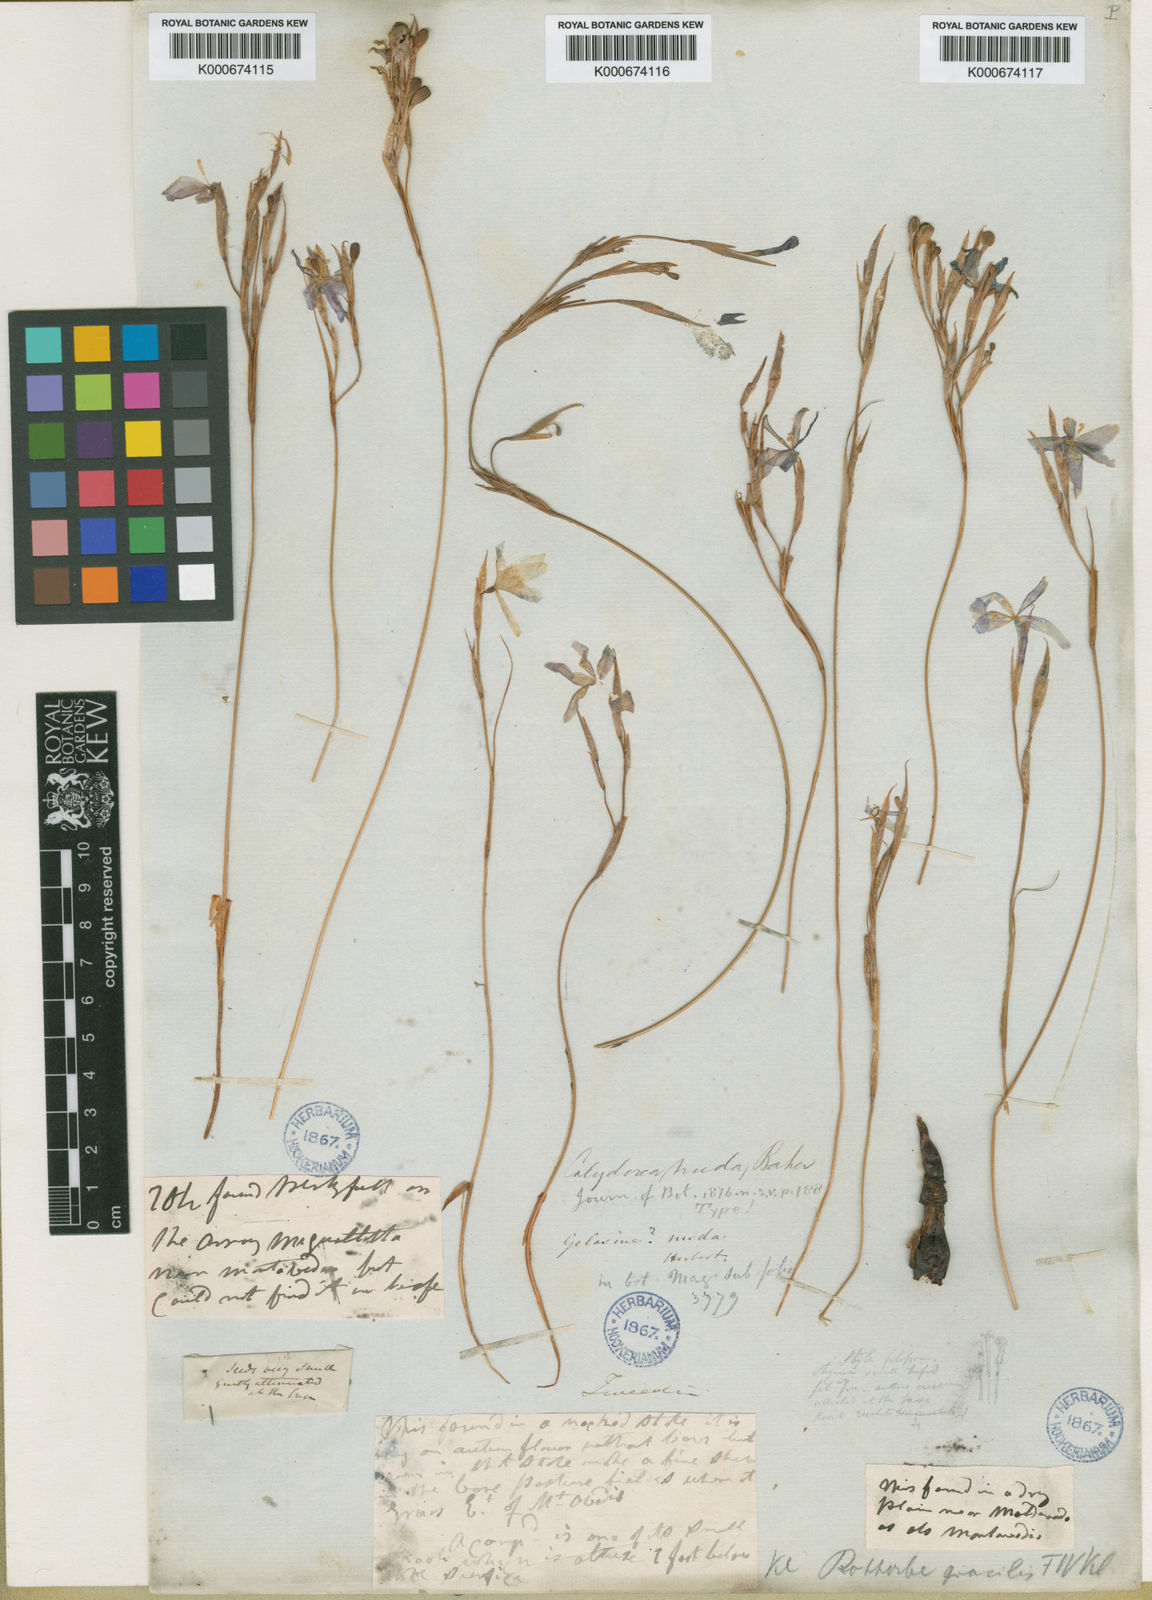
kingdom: Plantae
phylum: Tracheophyta
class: Liliopsida
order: Asparagales
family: Iridaceae
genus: Calydorea
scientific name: Calydorea nuda
